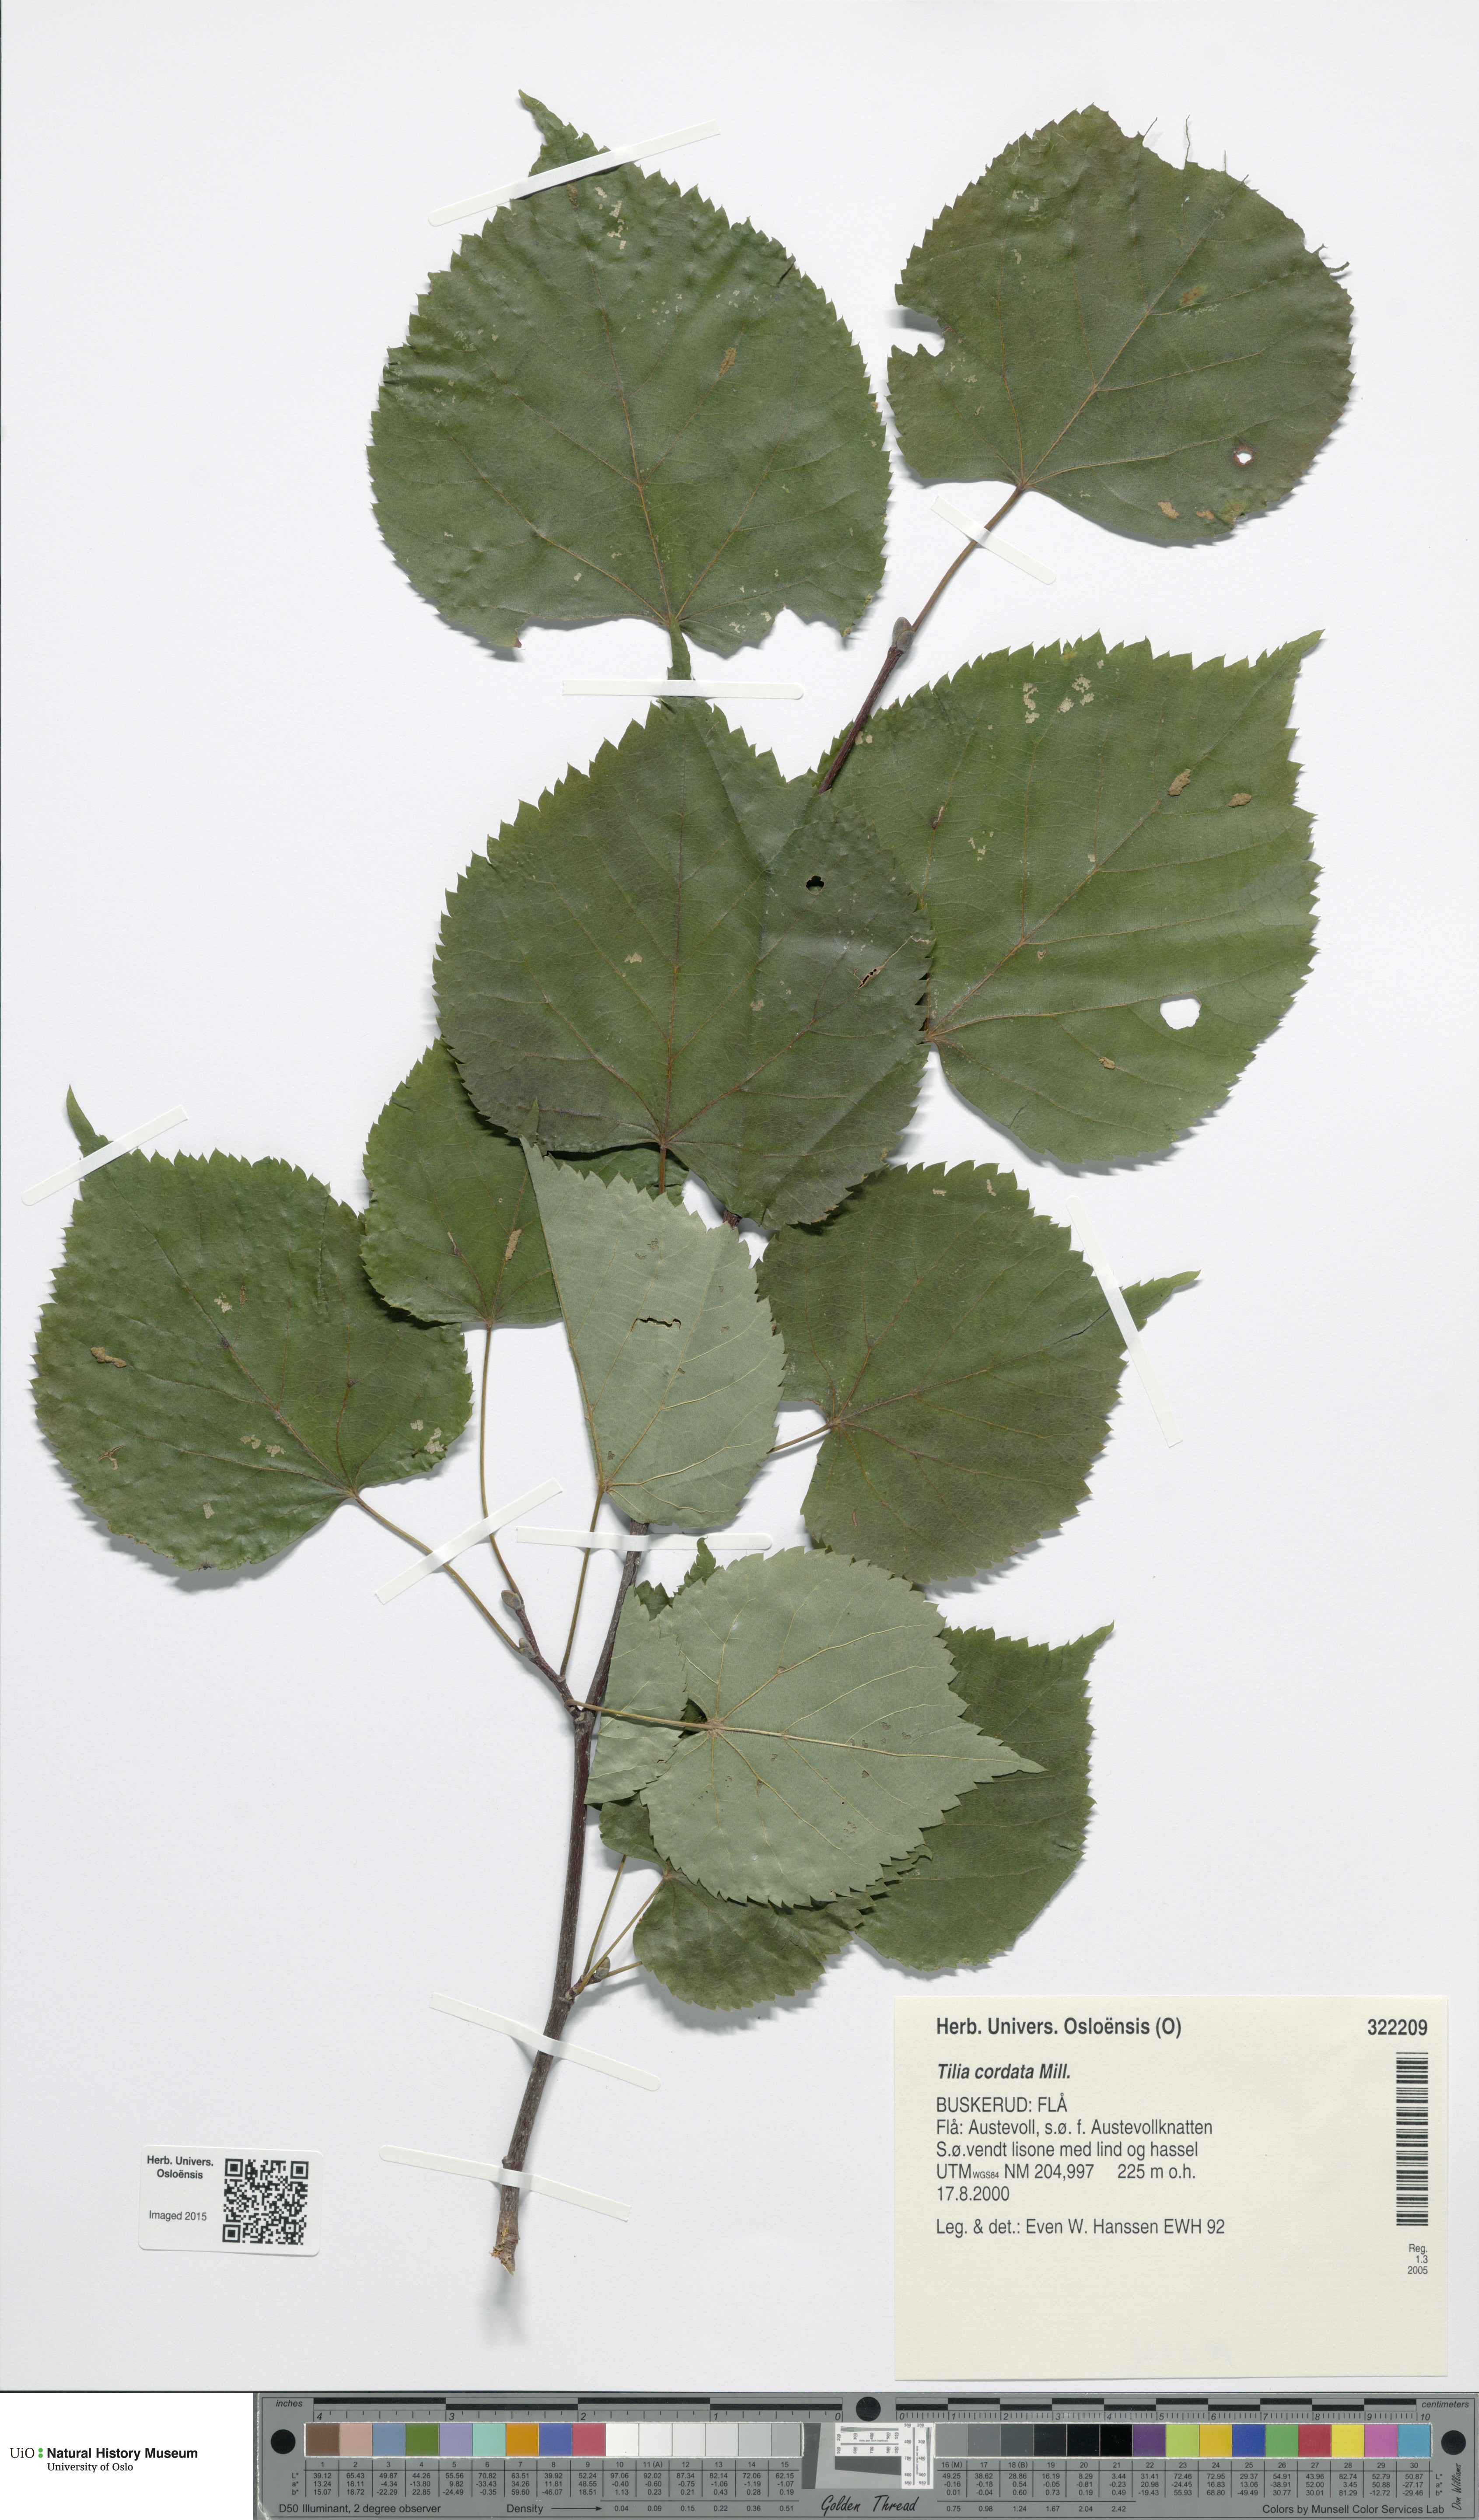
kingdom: Plantae
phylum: Tracheophyta
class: Magnoliopsida
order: Malvales
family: Malvaceae
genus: Tilia
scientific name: Tilia cordata
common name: Small-leaved lime
